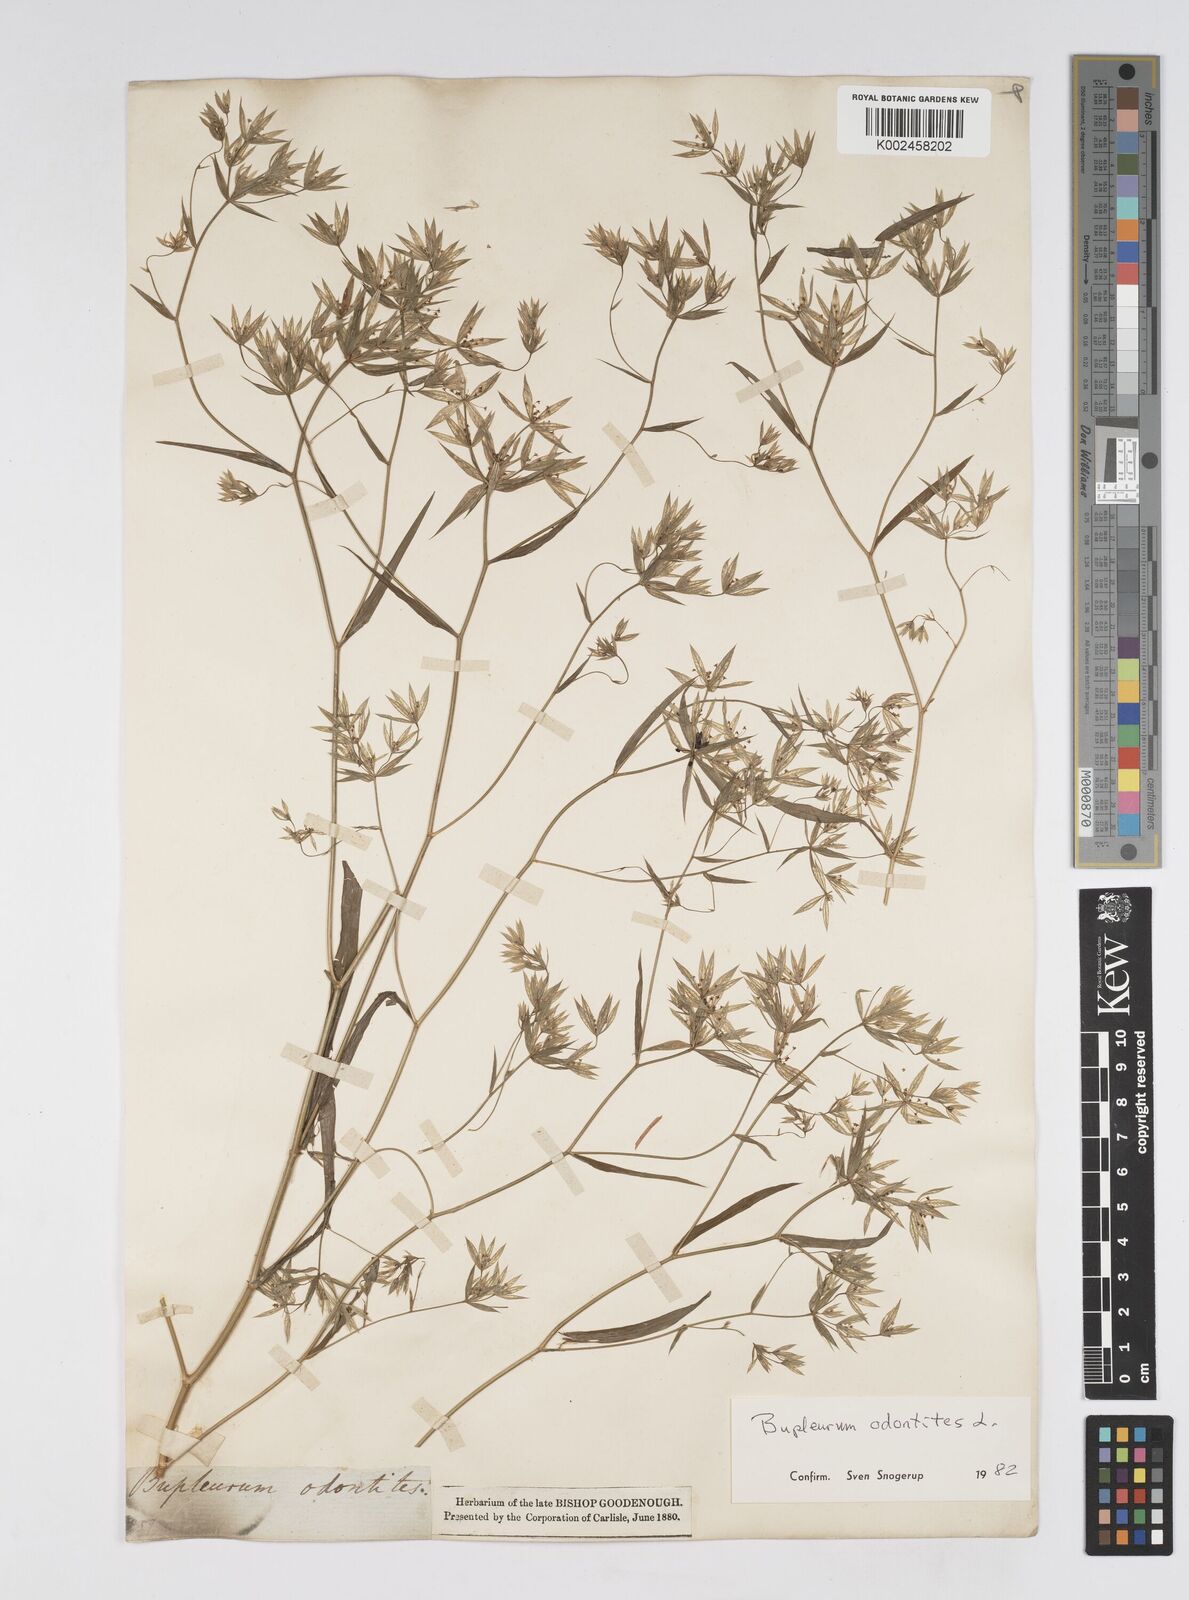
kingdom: Plantae
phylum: Tracheophyta
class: Magnoliopsida
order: Apiales
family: Apiaceae
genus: Bupleurum
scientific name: Bupleurum odontites
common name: Narrowleaf thorow wax
